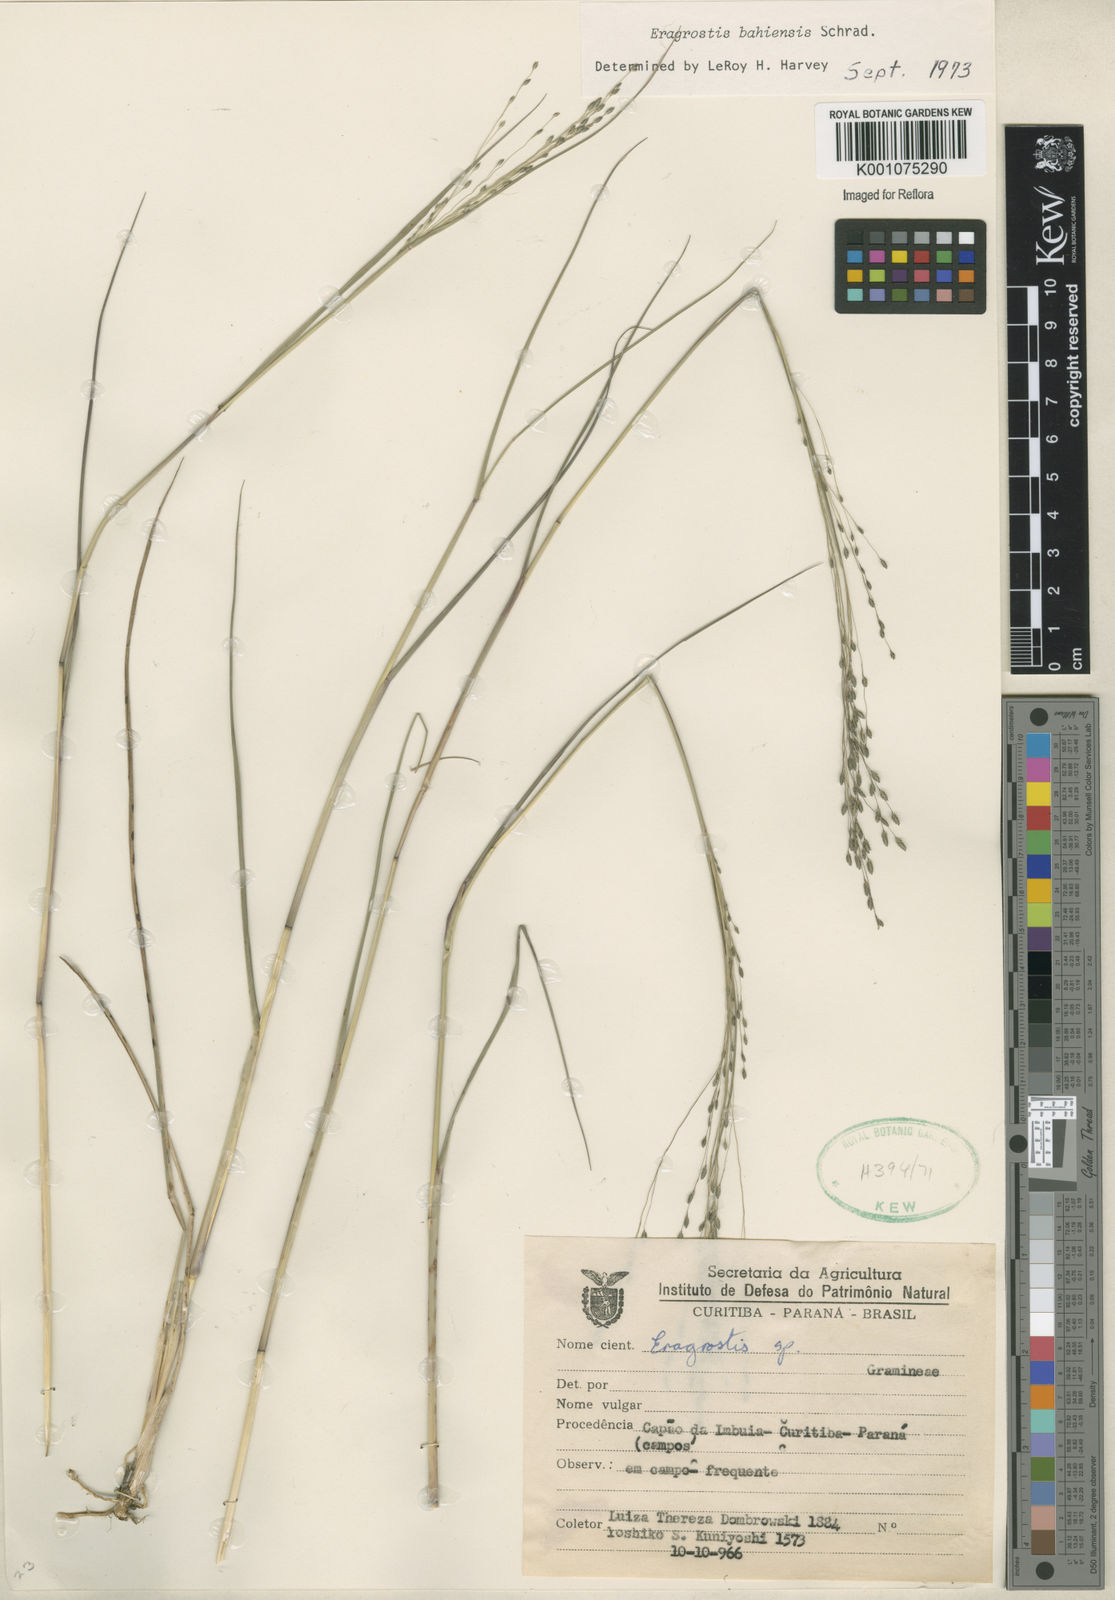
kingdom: Plantae
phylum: Tracheophyta
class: Liliopsida
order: Poales
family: Poaceae
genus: Eragrostis
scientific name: Eragrostis bahiensis
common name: Bahia lovegrass
